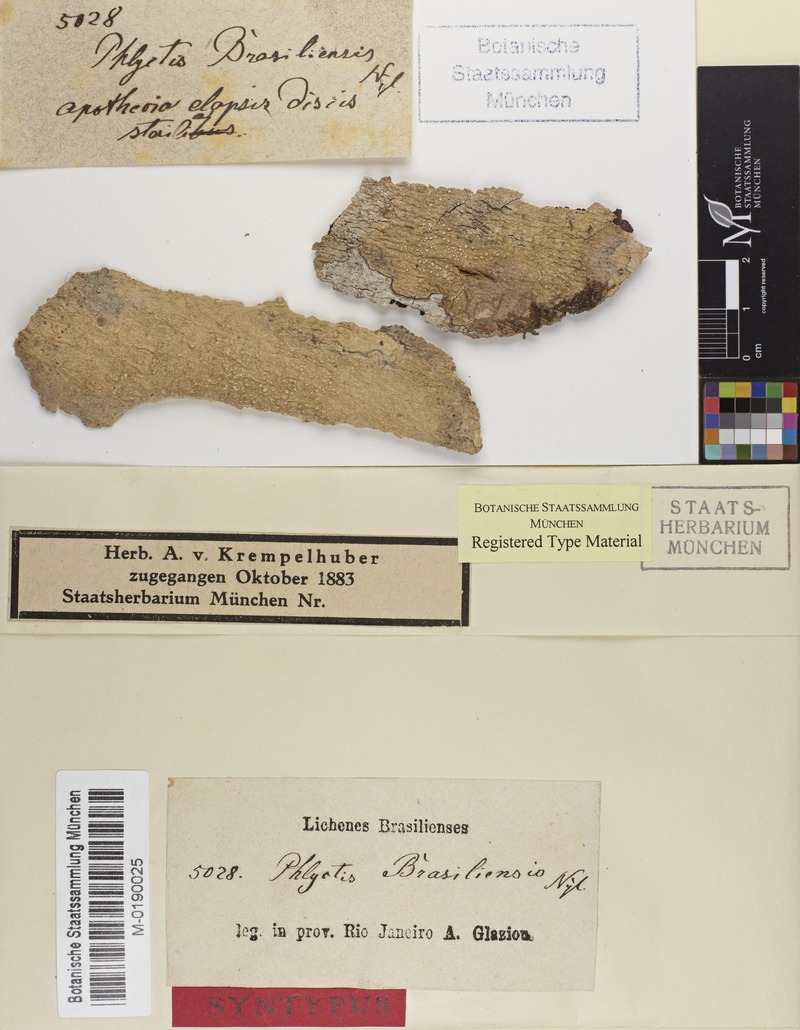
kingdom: Fungi
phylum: Ascomycota
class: Lecanoromycetes
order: Ostropales
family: Phlyctidaceae
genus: Phlyctella
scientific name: Phlyctella brasiliensis
